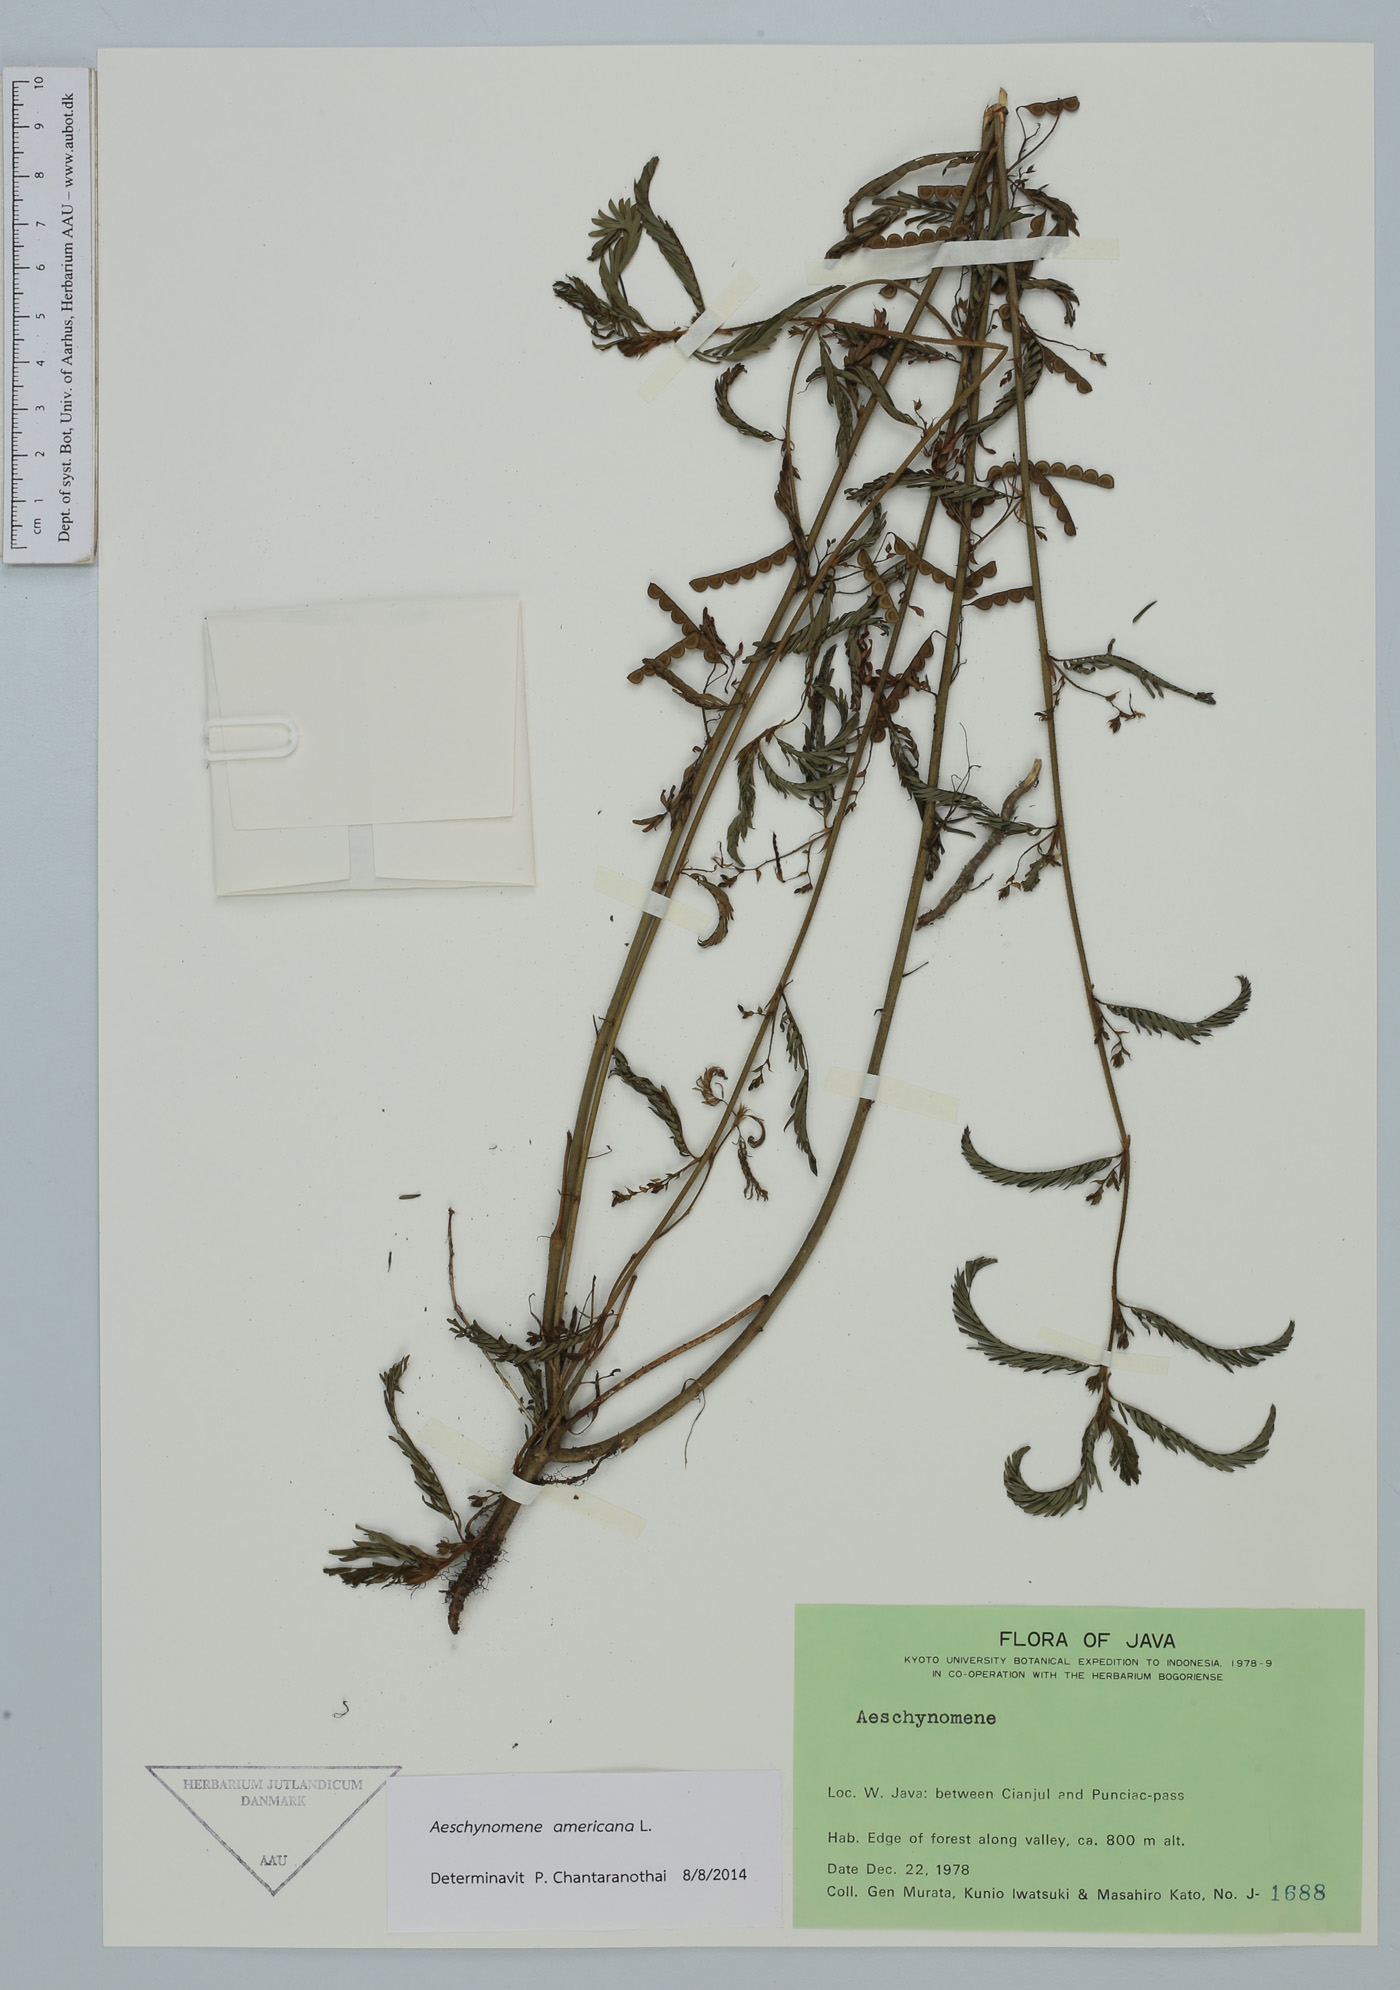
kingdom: Plantae
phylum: Tracheophyta
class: Magnoliopsida
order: Fabales
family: Fabaceae
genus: Aeschynomene
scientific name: Aeschynomene americana
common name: Joint-vetch
